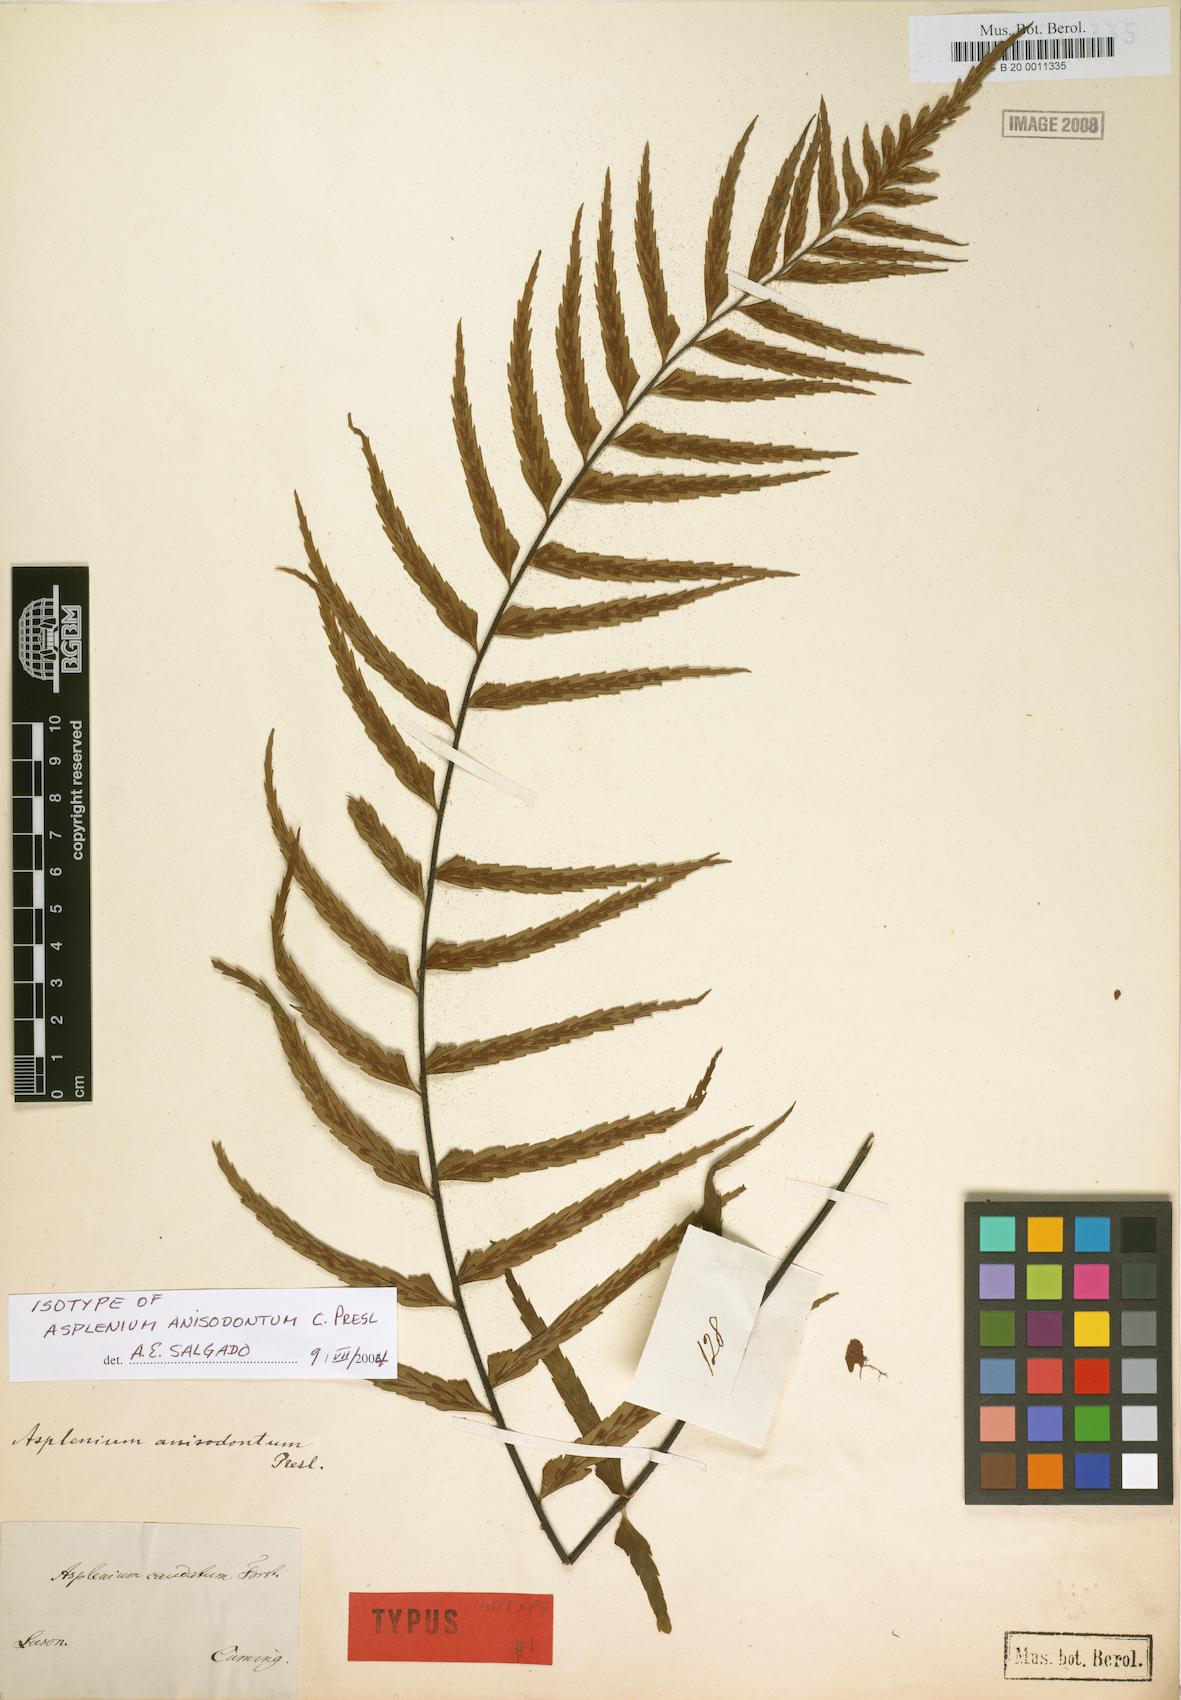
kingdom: Plantae
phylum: Tracheophyta
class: Polypodiopsida
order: Polypodiales
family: Aspleniaceae
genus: Asplenium
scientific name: Asplenium longissimum
